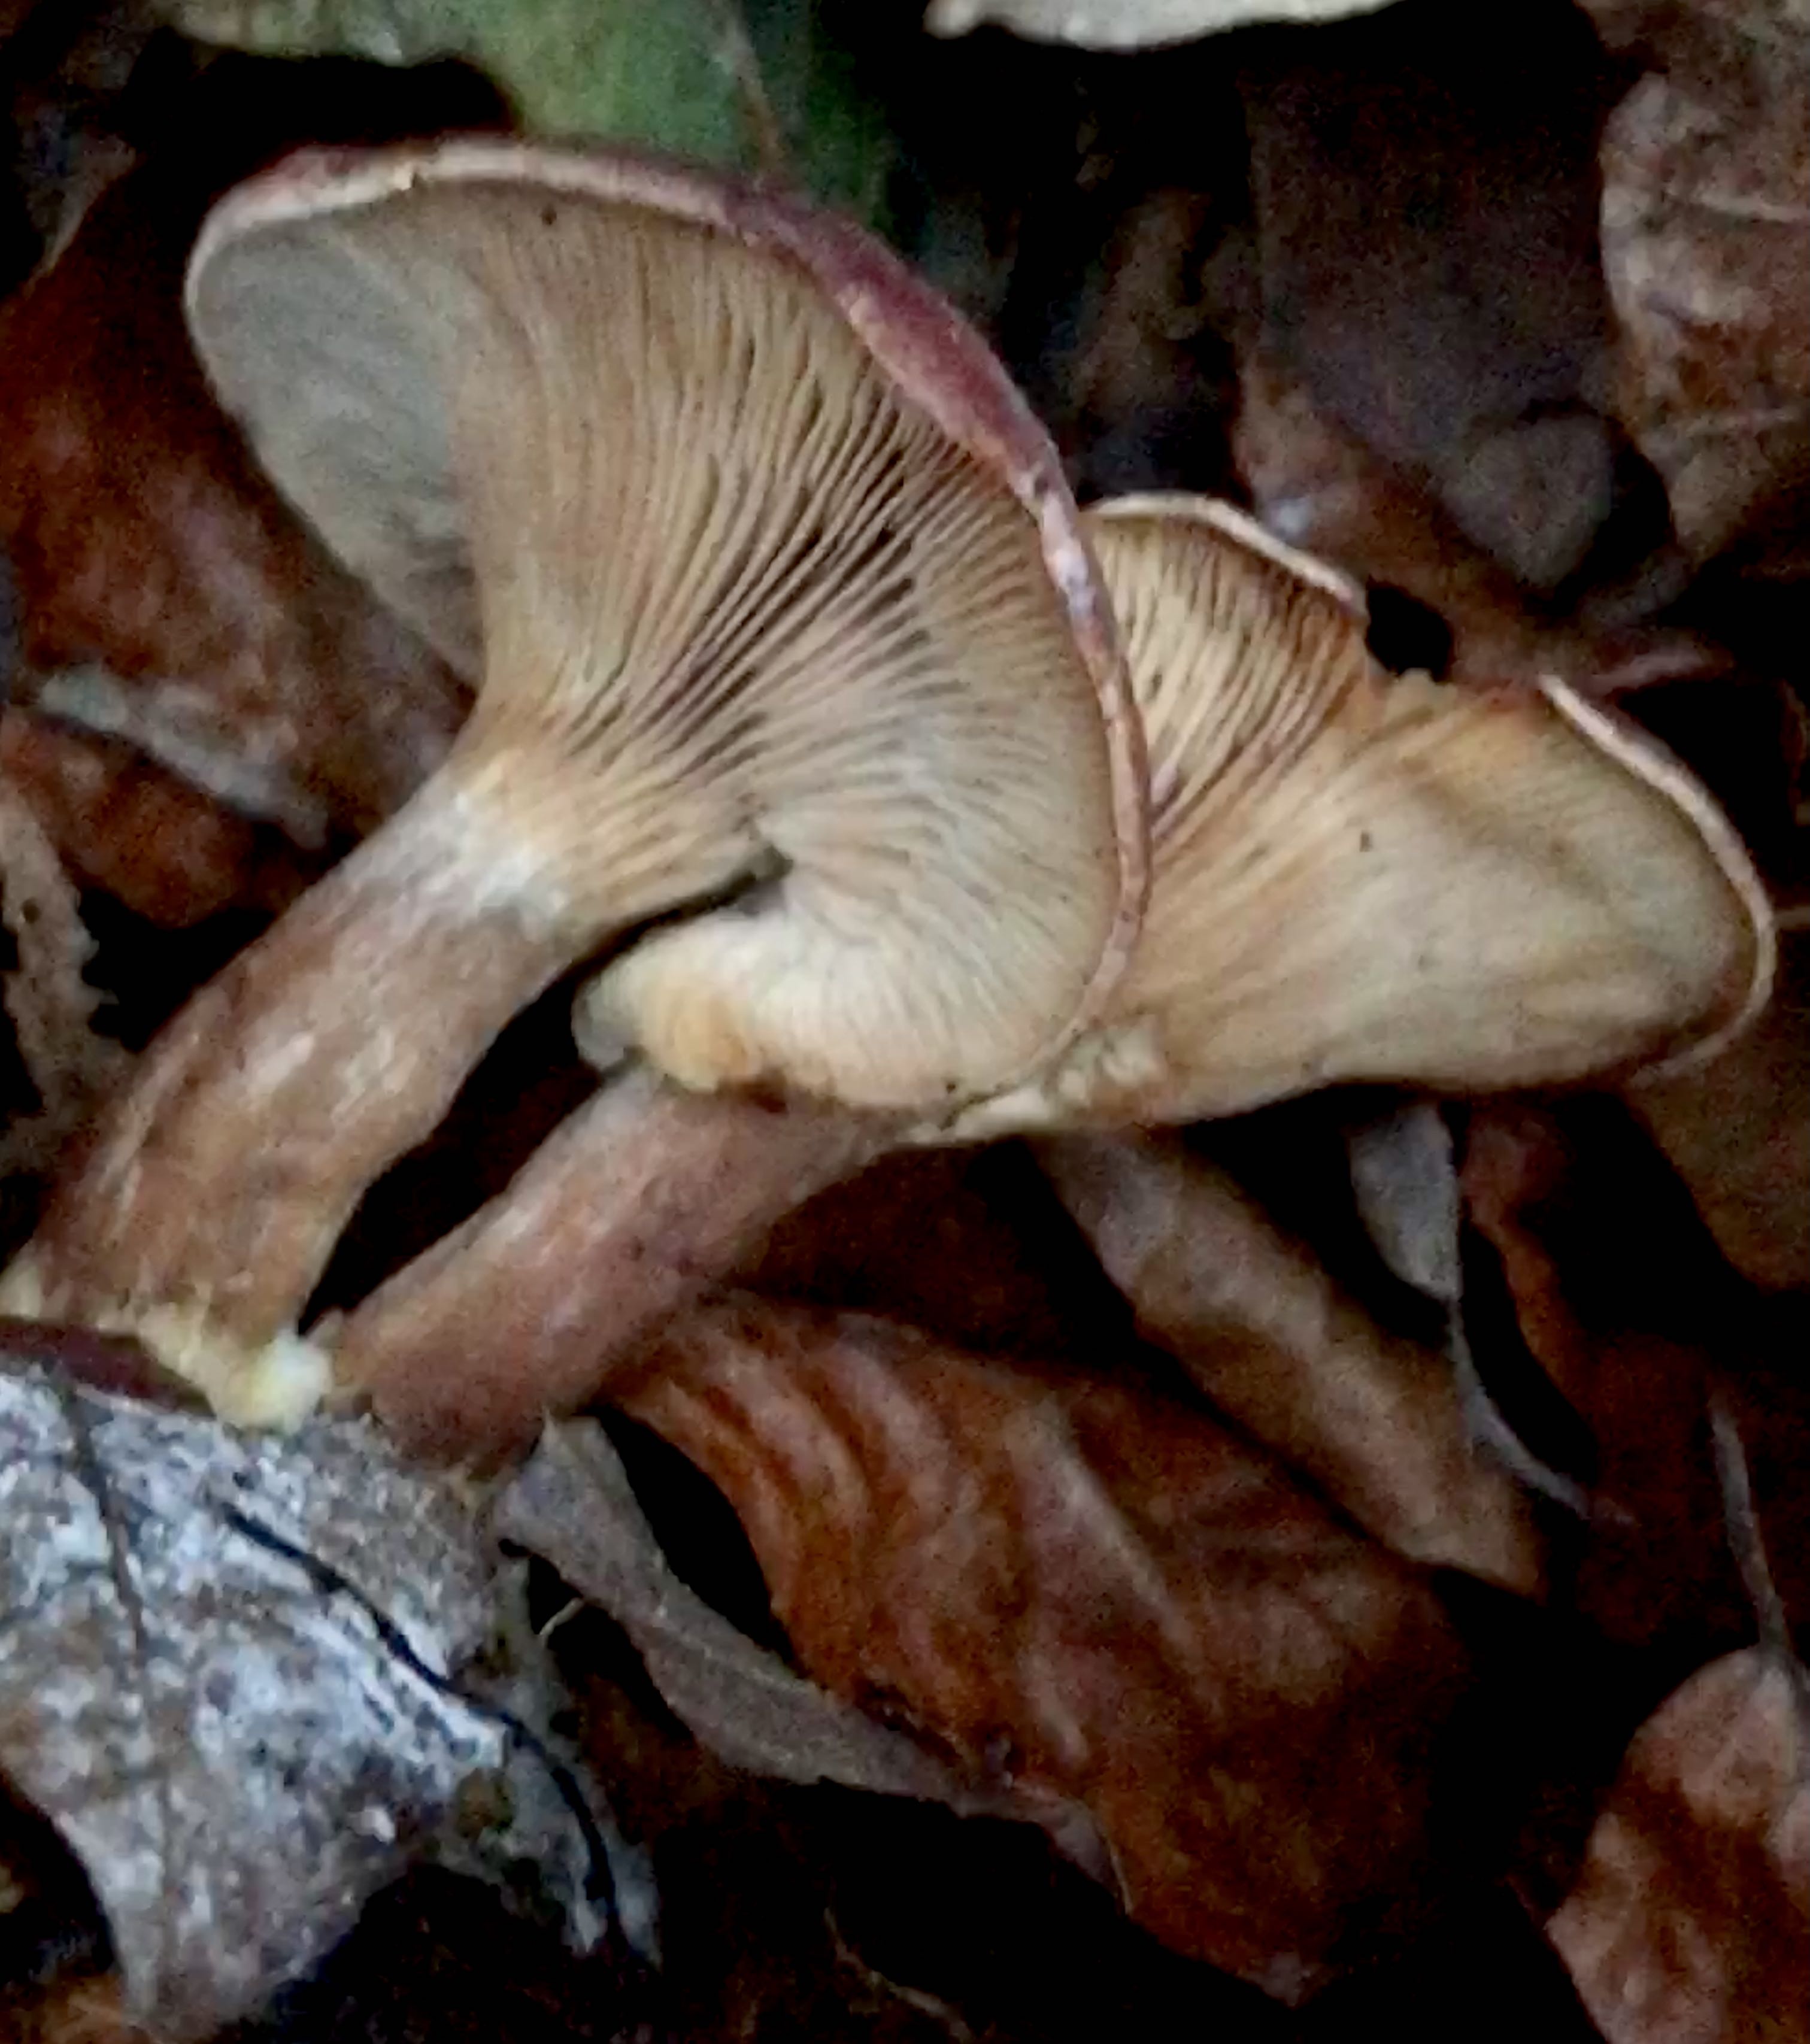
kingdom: Fungi
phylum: Basidiomycota
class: Agaricomycetes
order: Agaricales
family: Tricholomataceae
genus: Paralepista
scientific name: Paralepista
